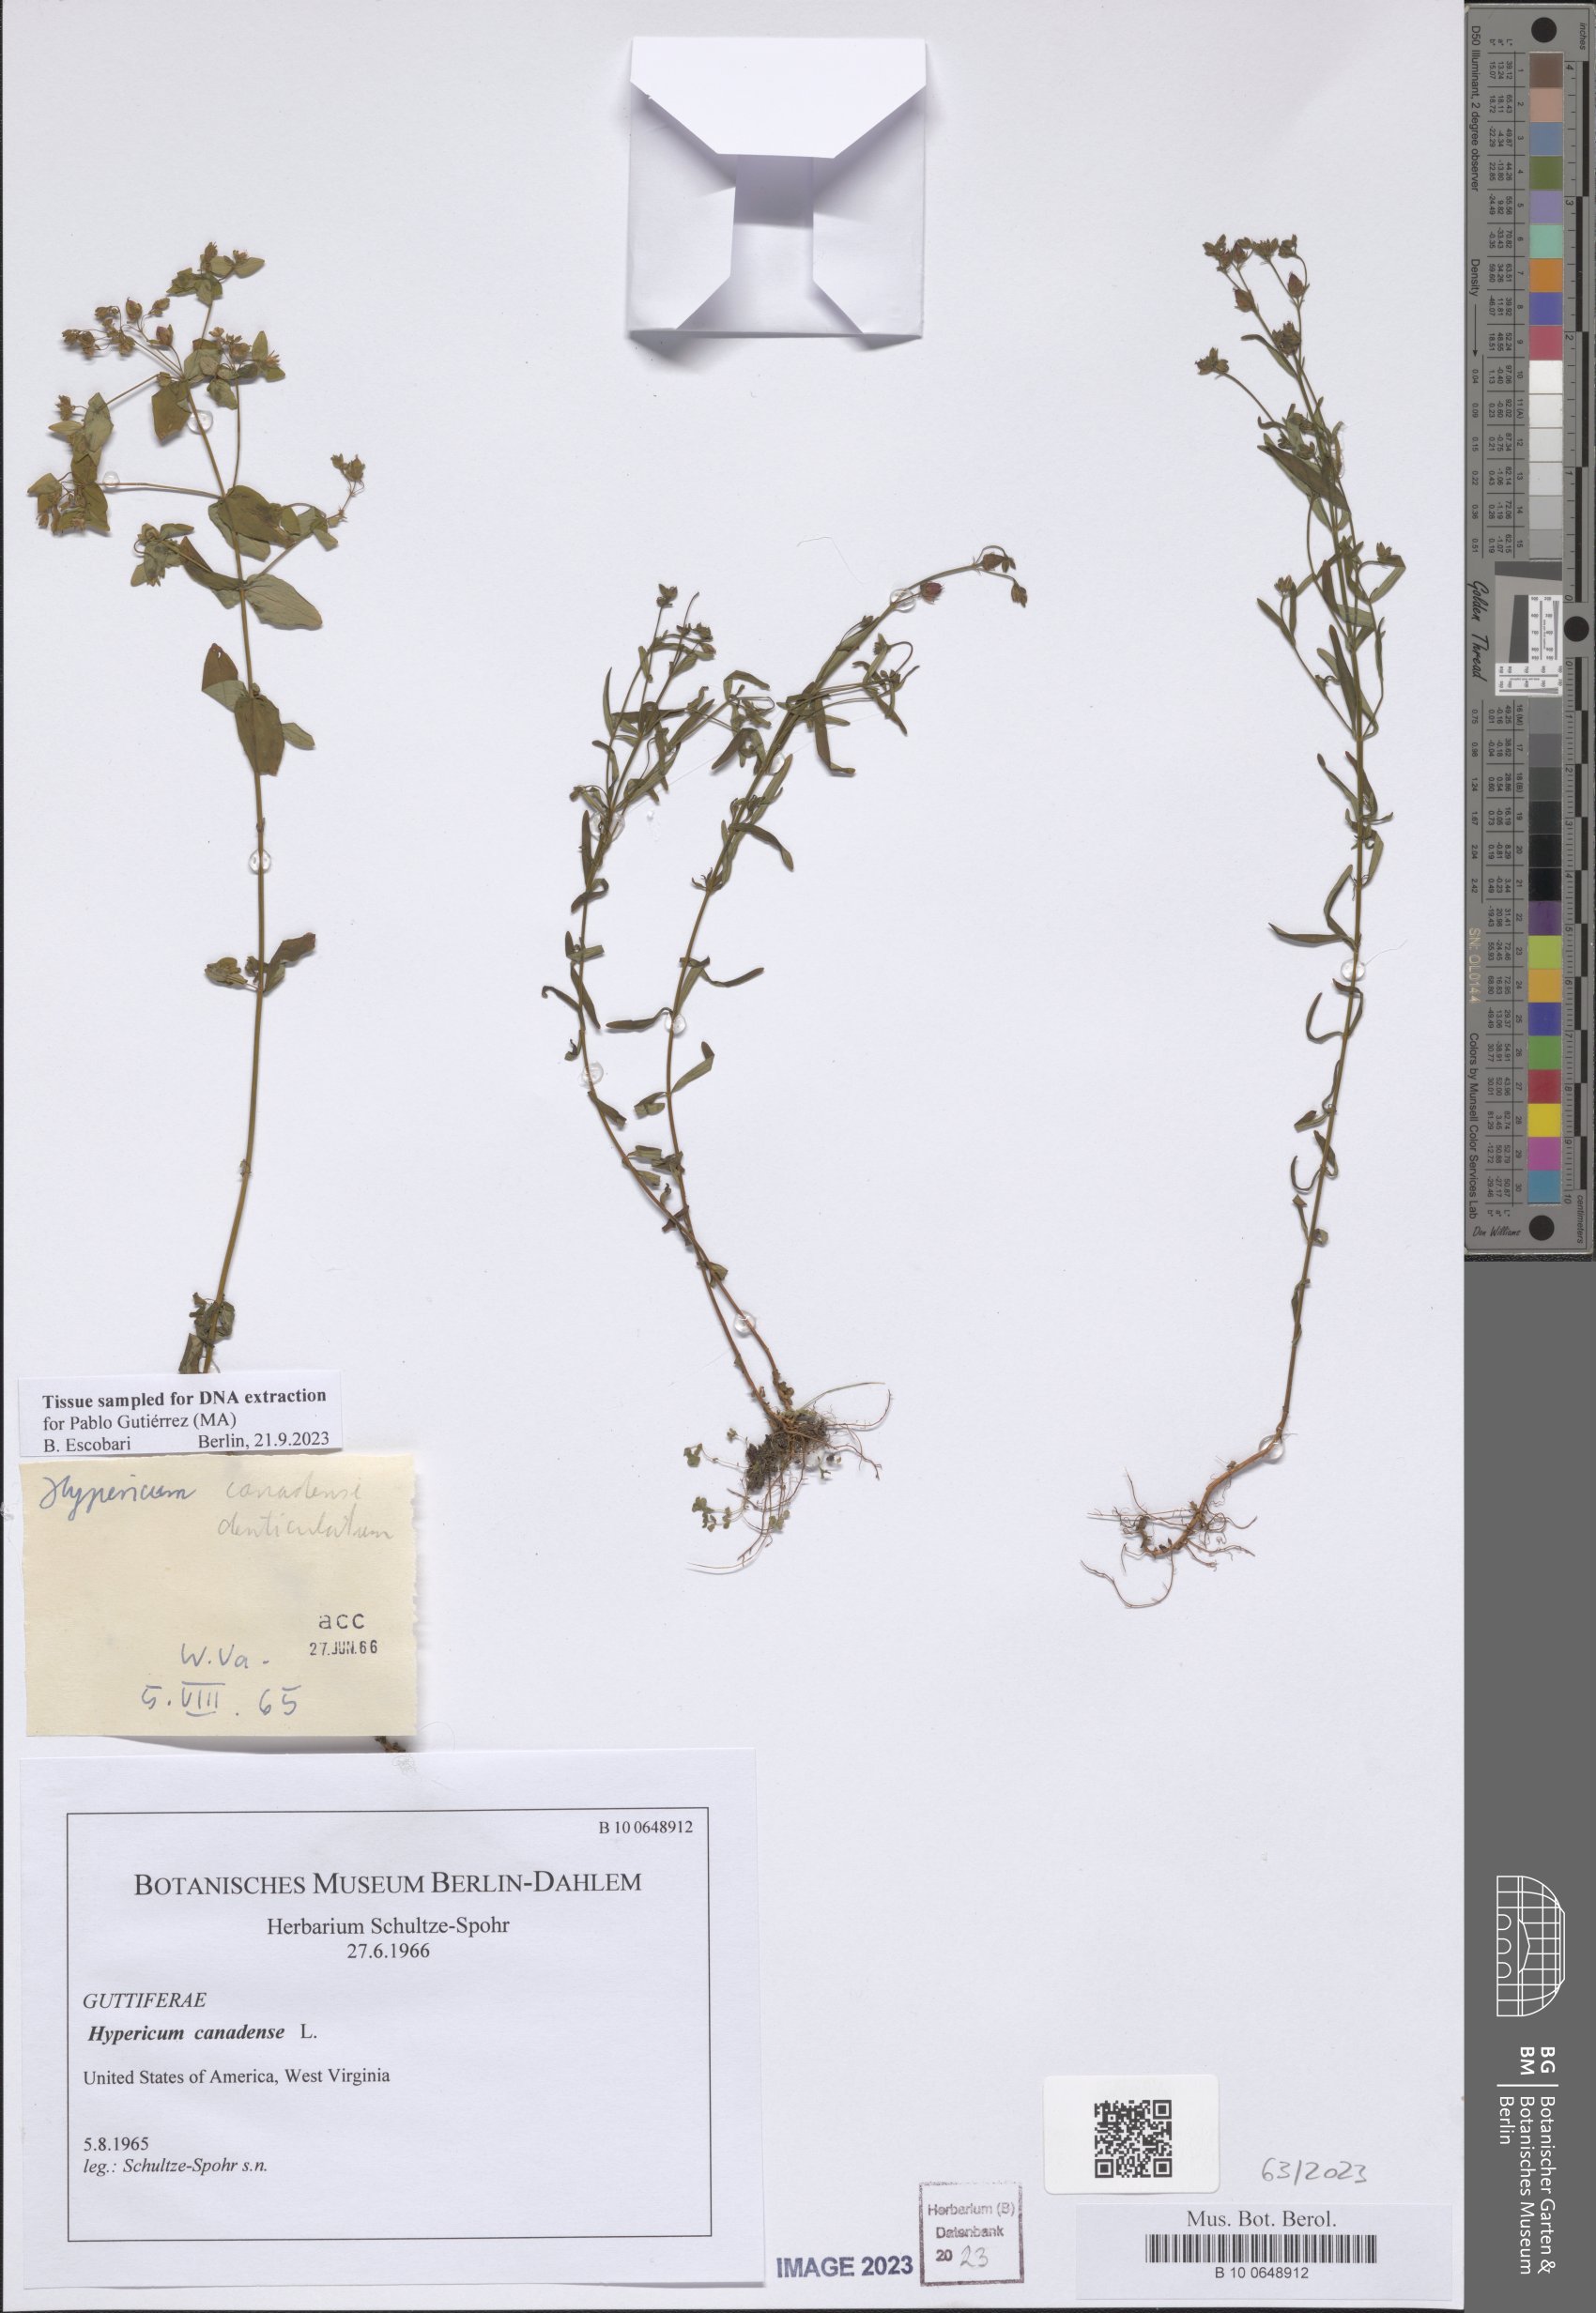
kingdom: Plantae
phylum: Tracheophyta
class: Magnoliopsida
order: Malpighiales
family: Hypericaceae
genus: Hypericum
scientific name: Hypericum canadense
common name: Irish st. john's-wort
